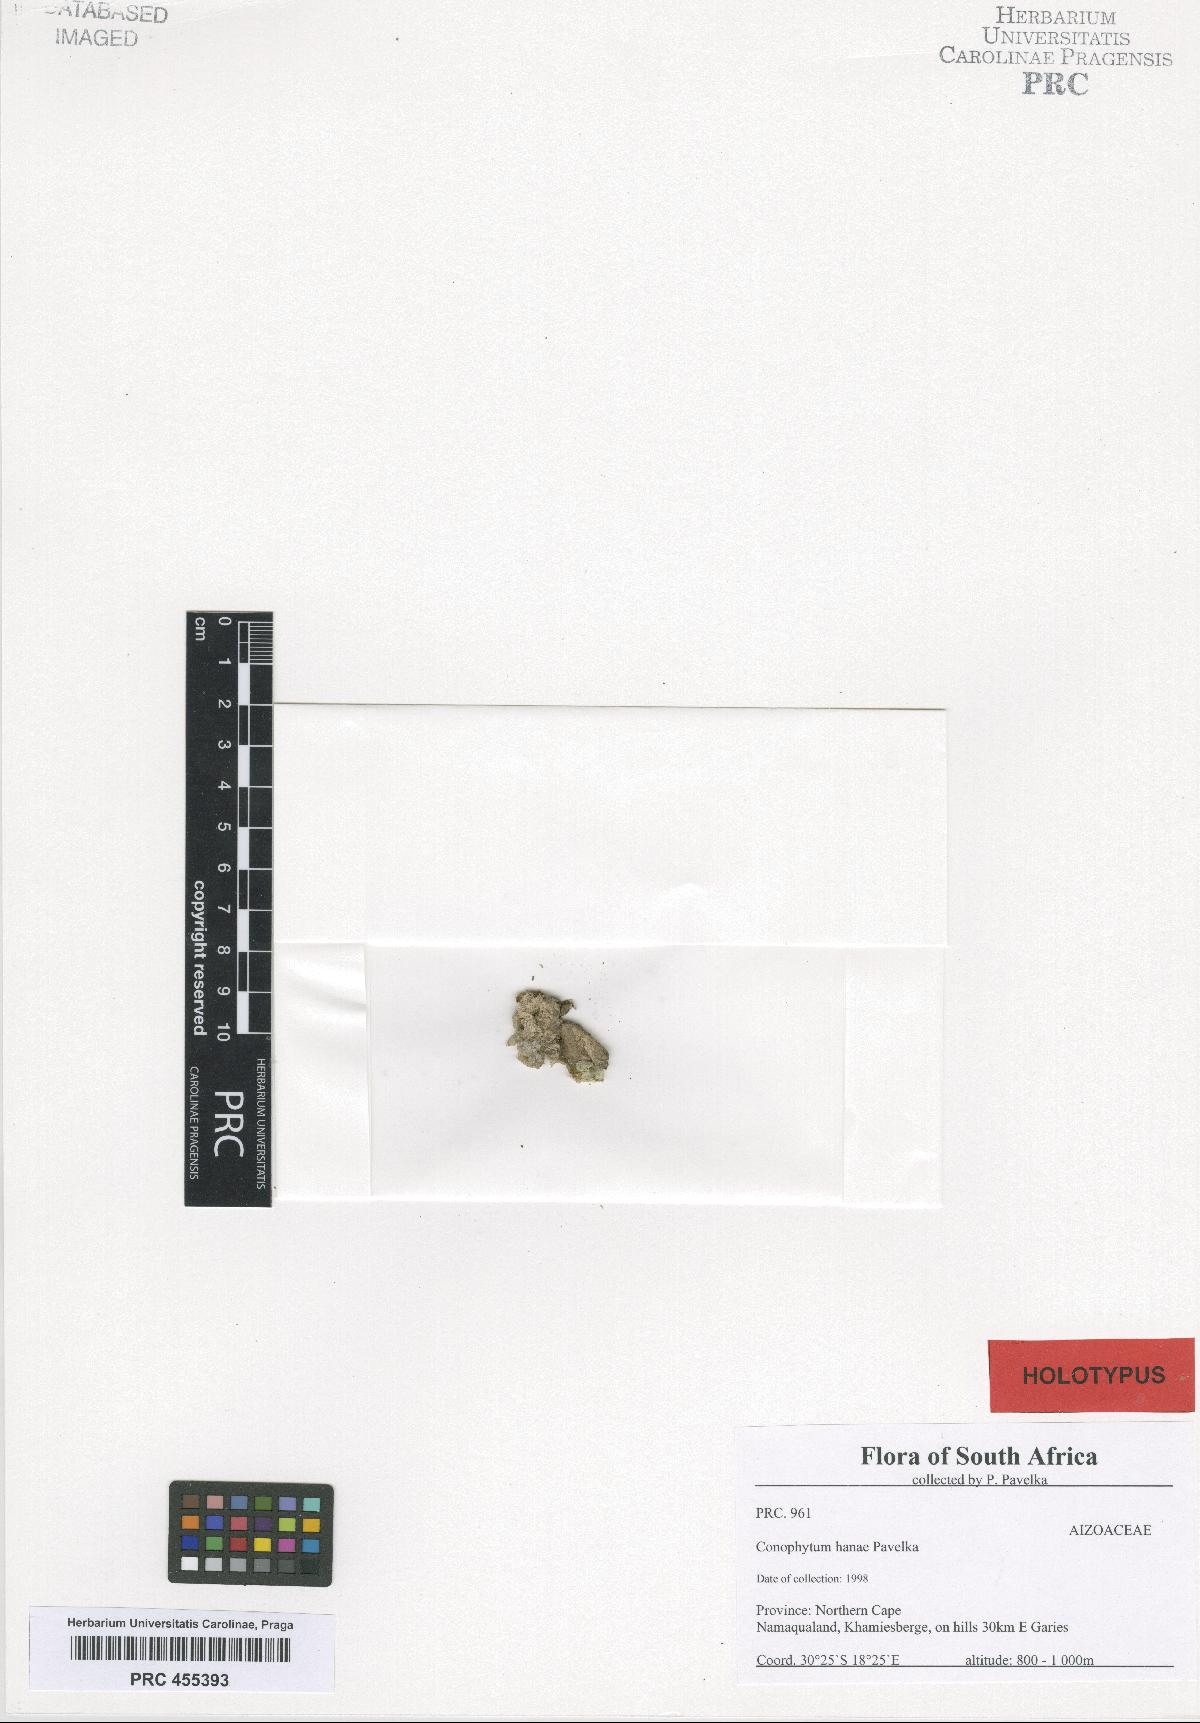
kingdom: Plantae
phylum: Tracheophyta
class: Magnoliopsida
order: Caryophyllales
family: Aizoaceae
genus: Conophytum
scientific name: Conophytum tomasii
